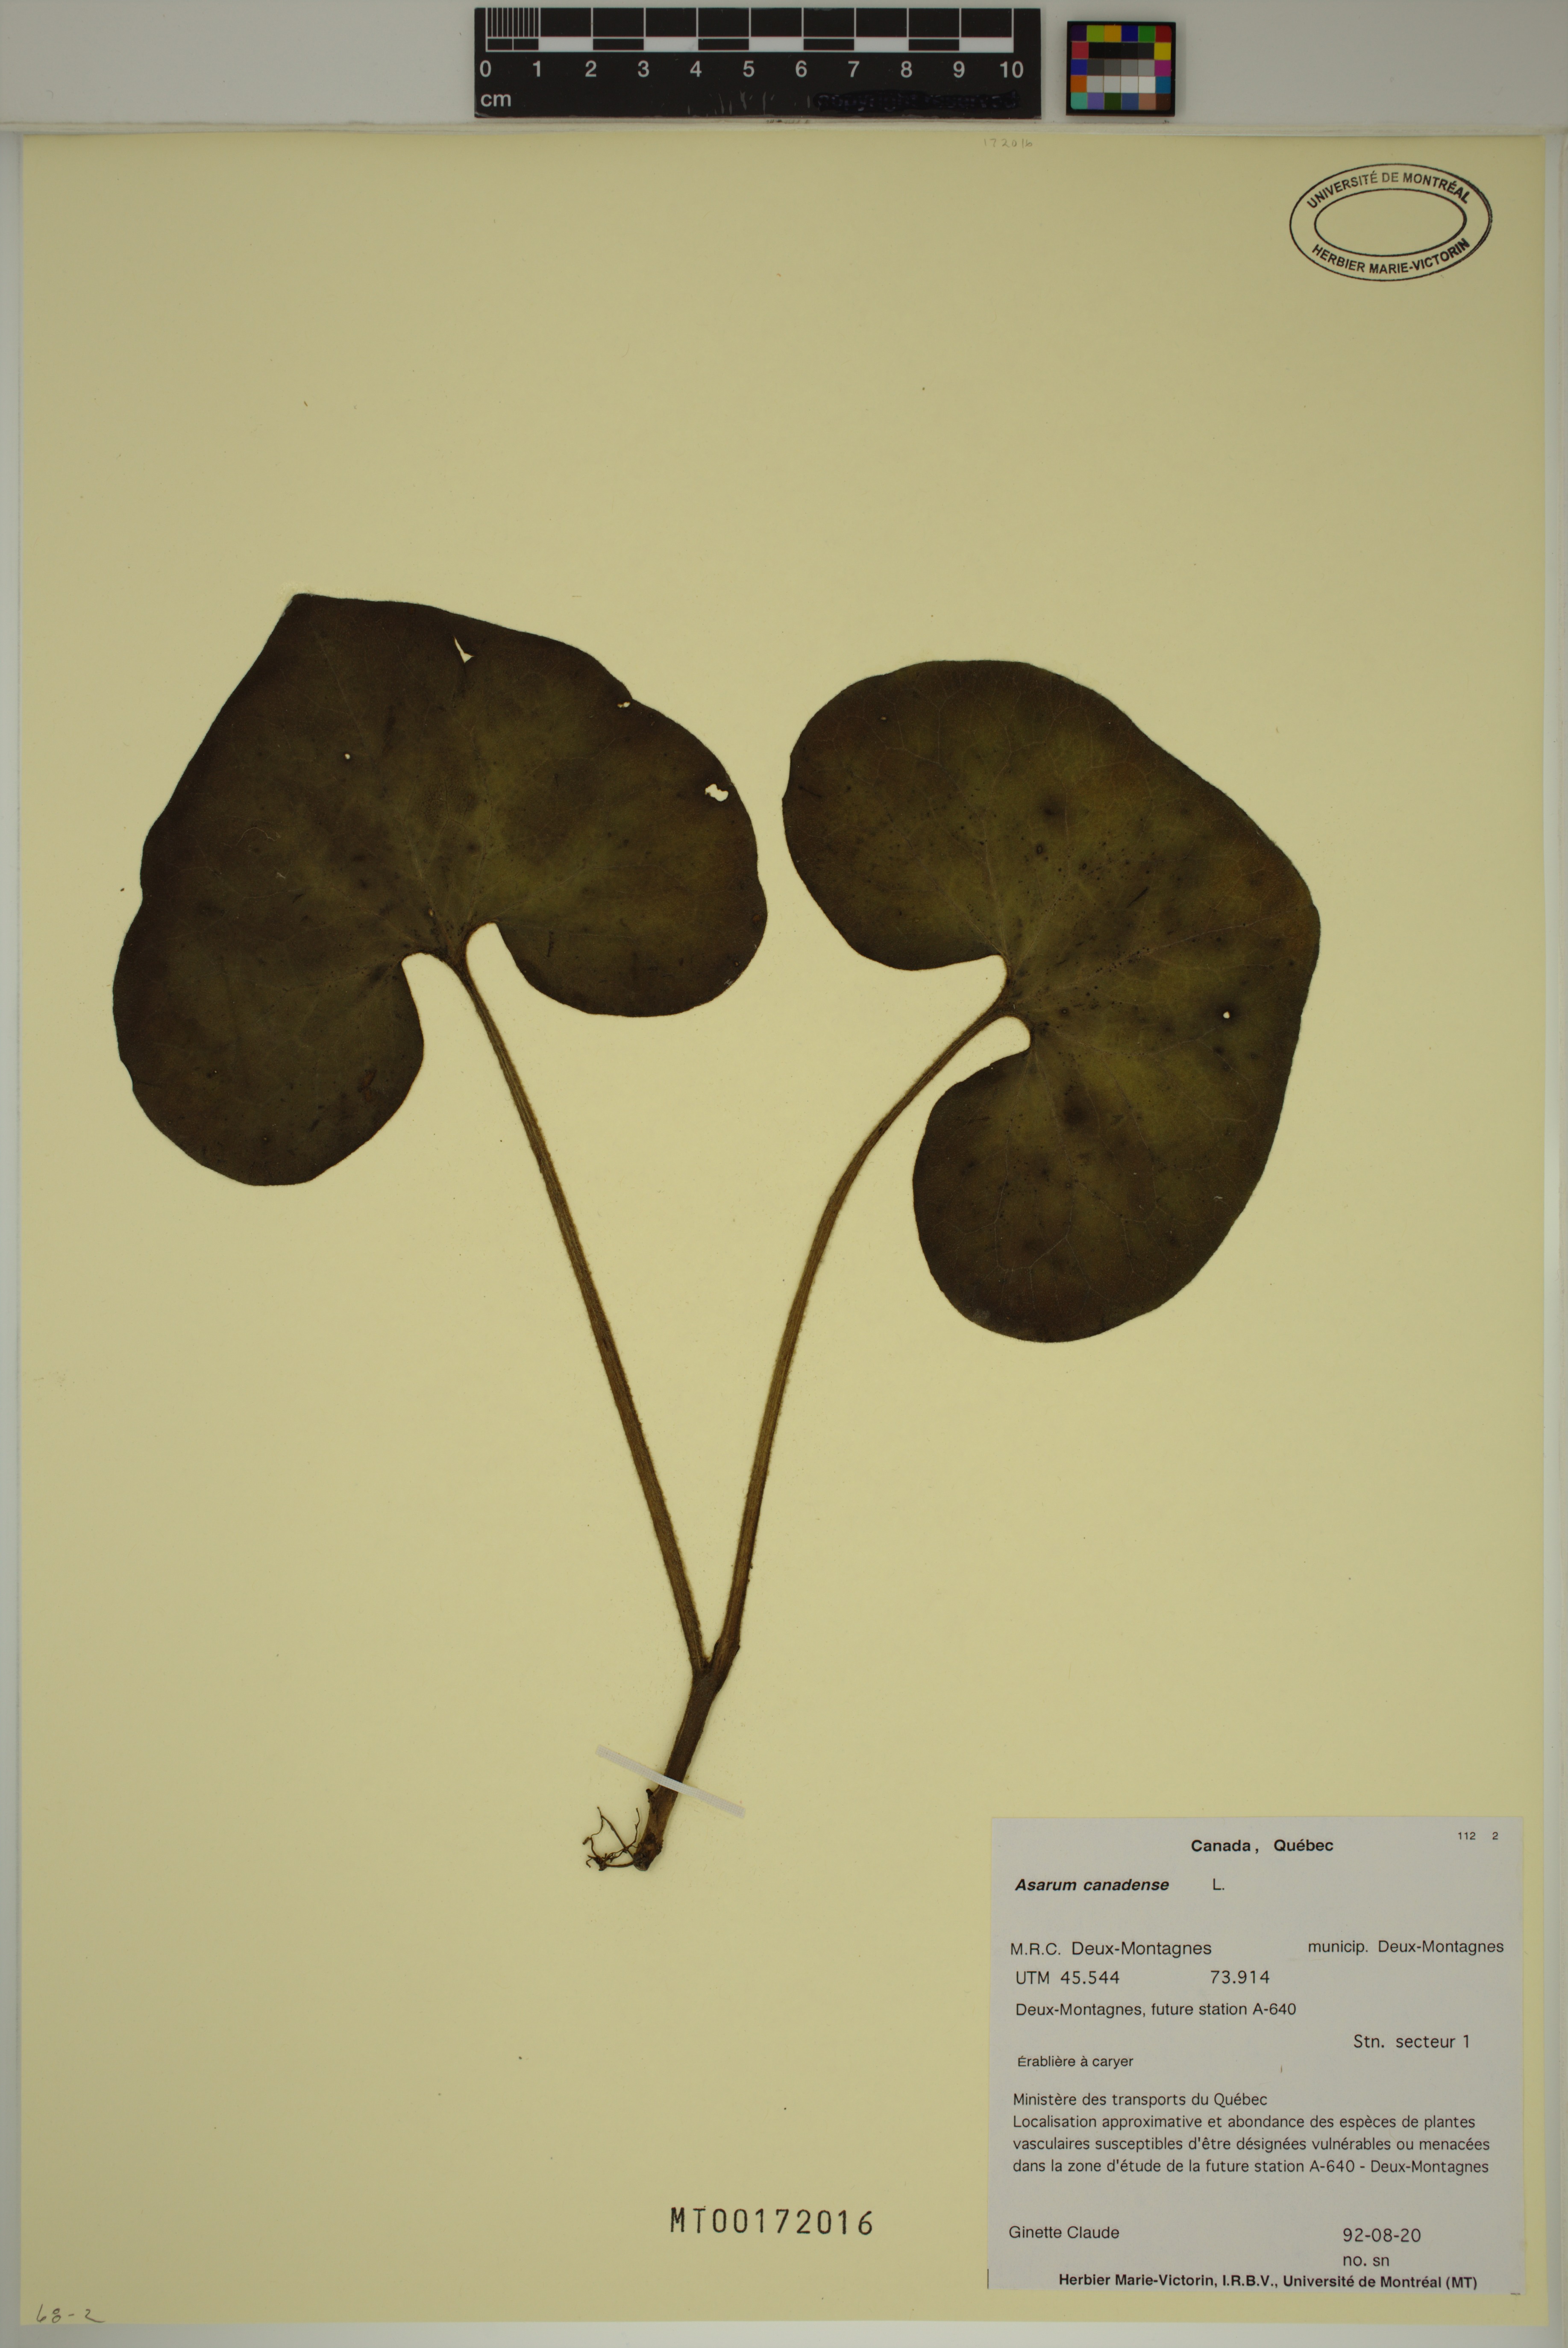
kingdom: Plantae
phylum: Tracheophyta
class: Magnoliopsida
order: Piperales
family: Aristolochiaceae
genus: Asarum
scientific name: Asarum canadense
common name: Wild ginger
